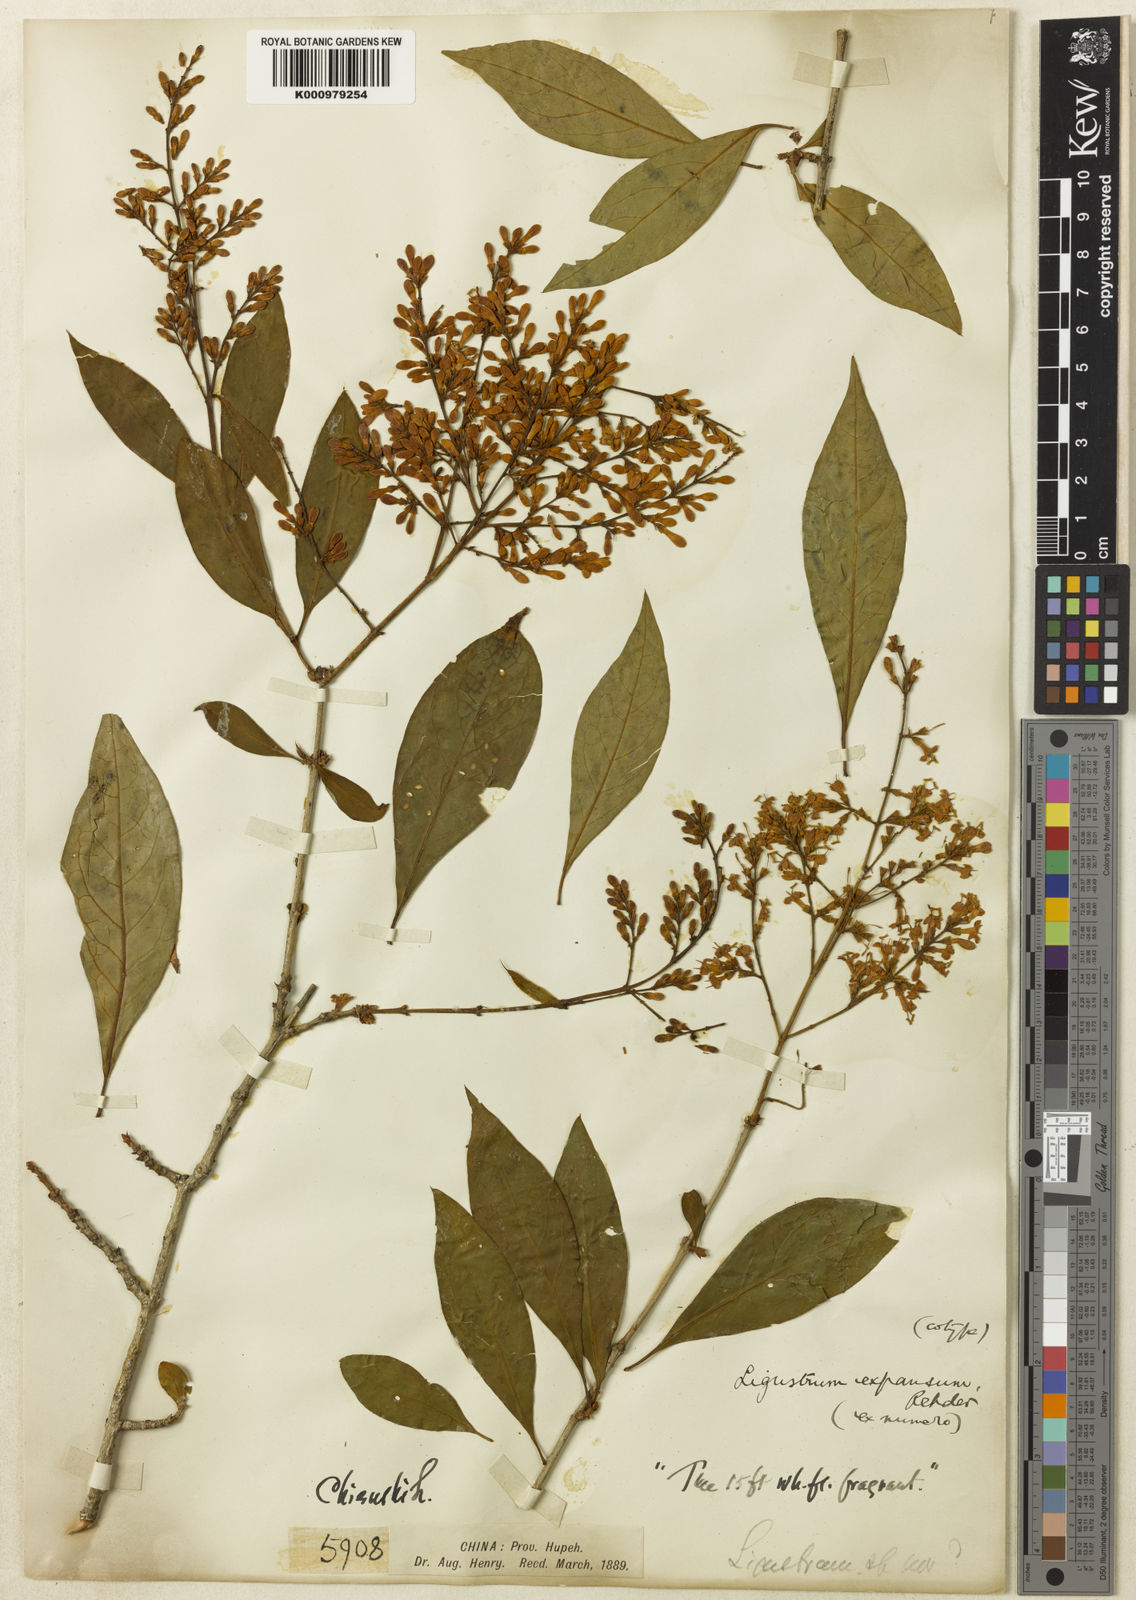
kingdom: Plantae
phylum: Tracheophyta
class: Magnoliopsida
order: Lamiales
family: Oleaceae
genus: Ligustrum
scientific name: Ligustrum expansum
